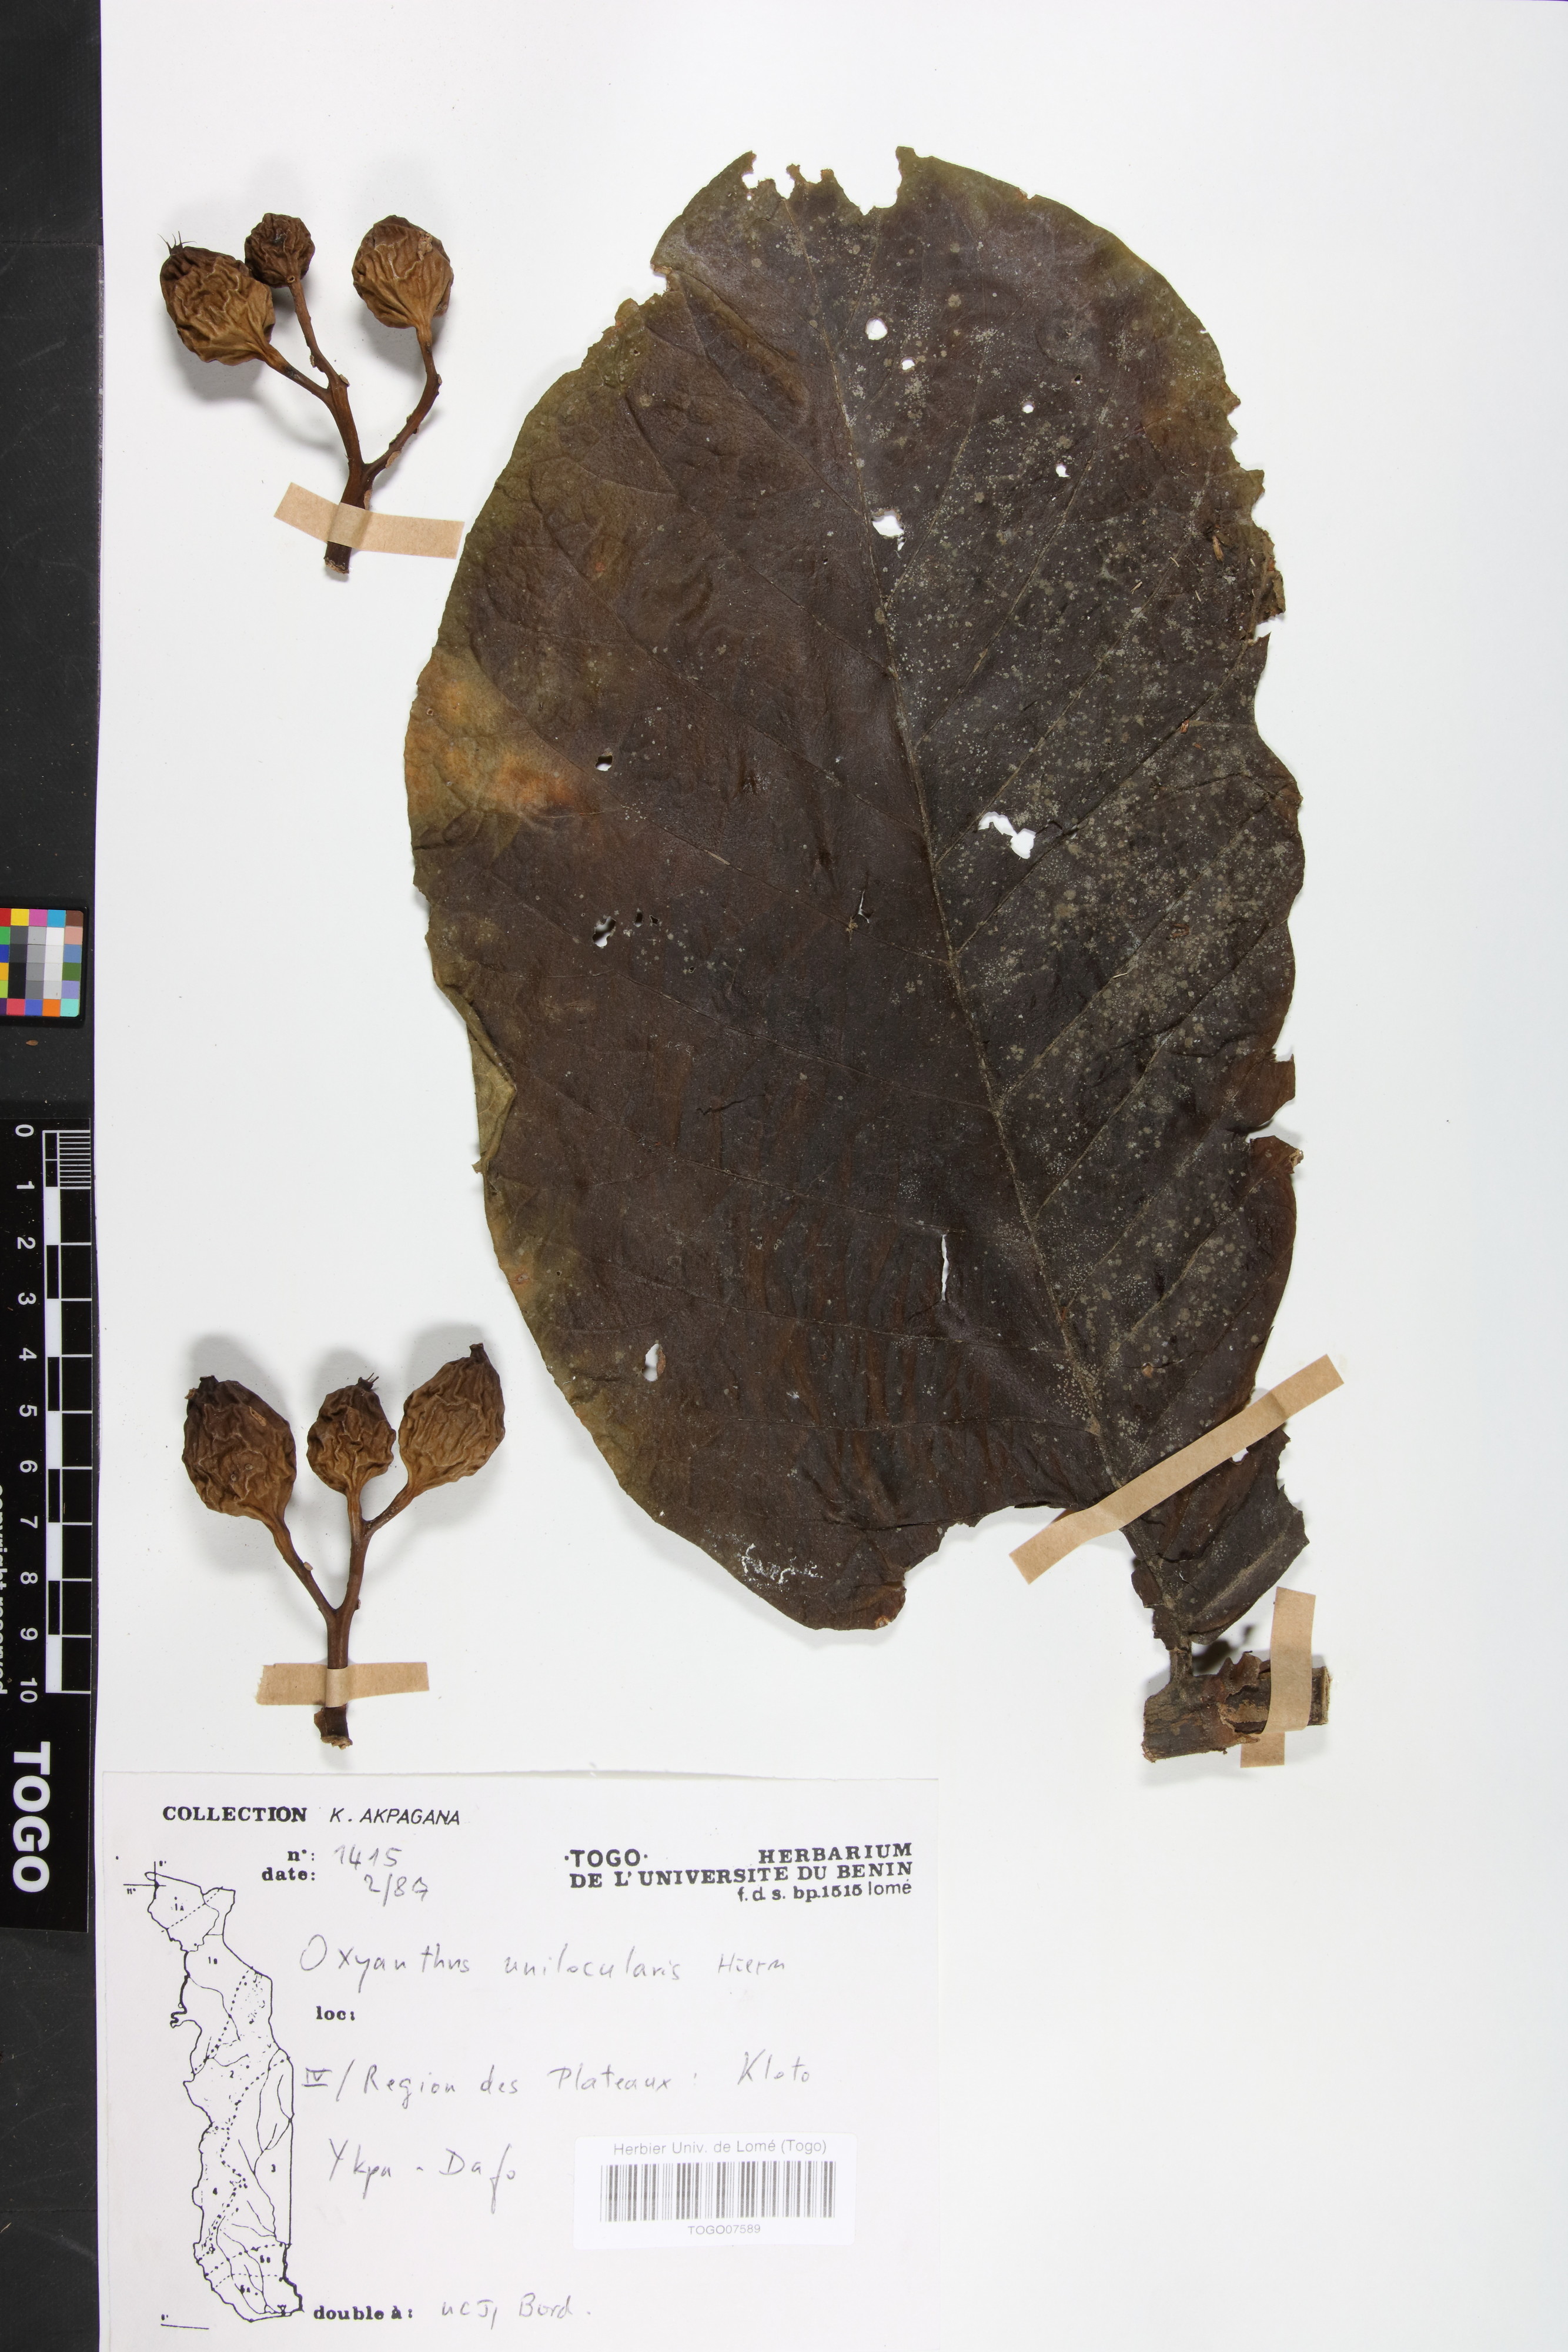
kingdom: Plantae
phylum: Tracheophyta
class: Magnoliopsida
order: Gentianales
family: Rubiaceae
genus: Oxyanthus
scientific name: Oxyanthus unilocularis
